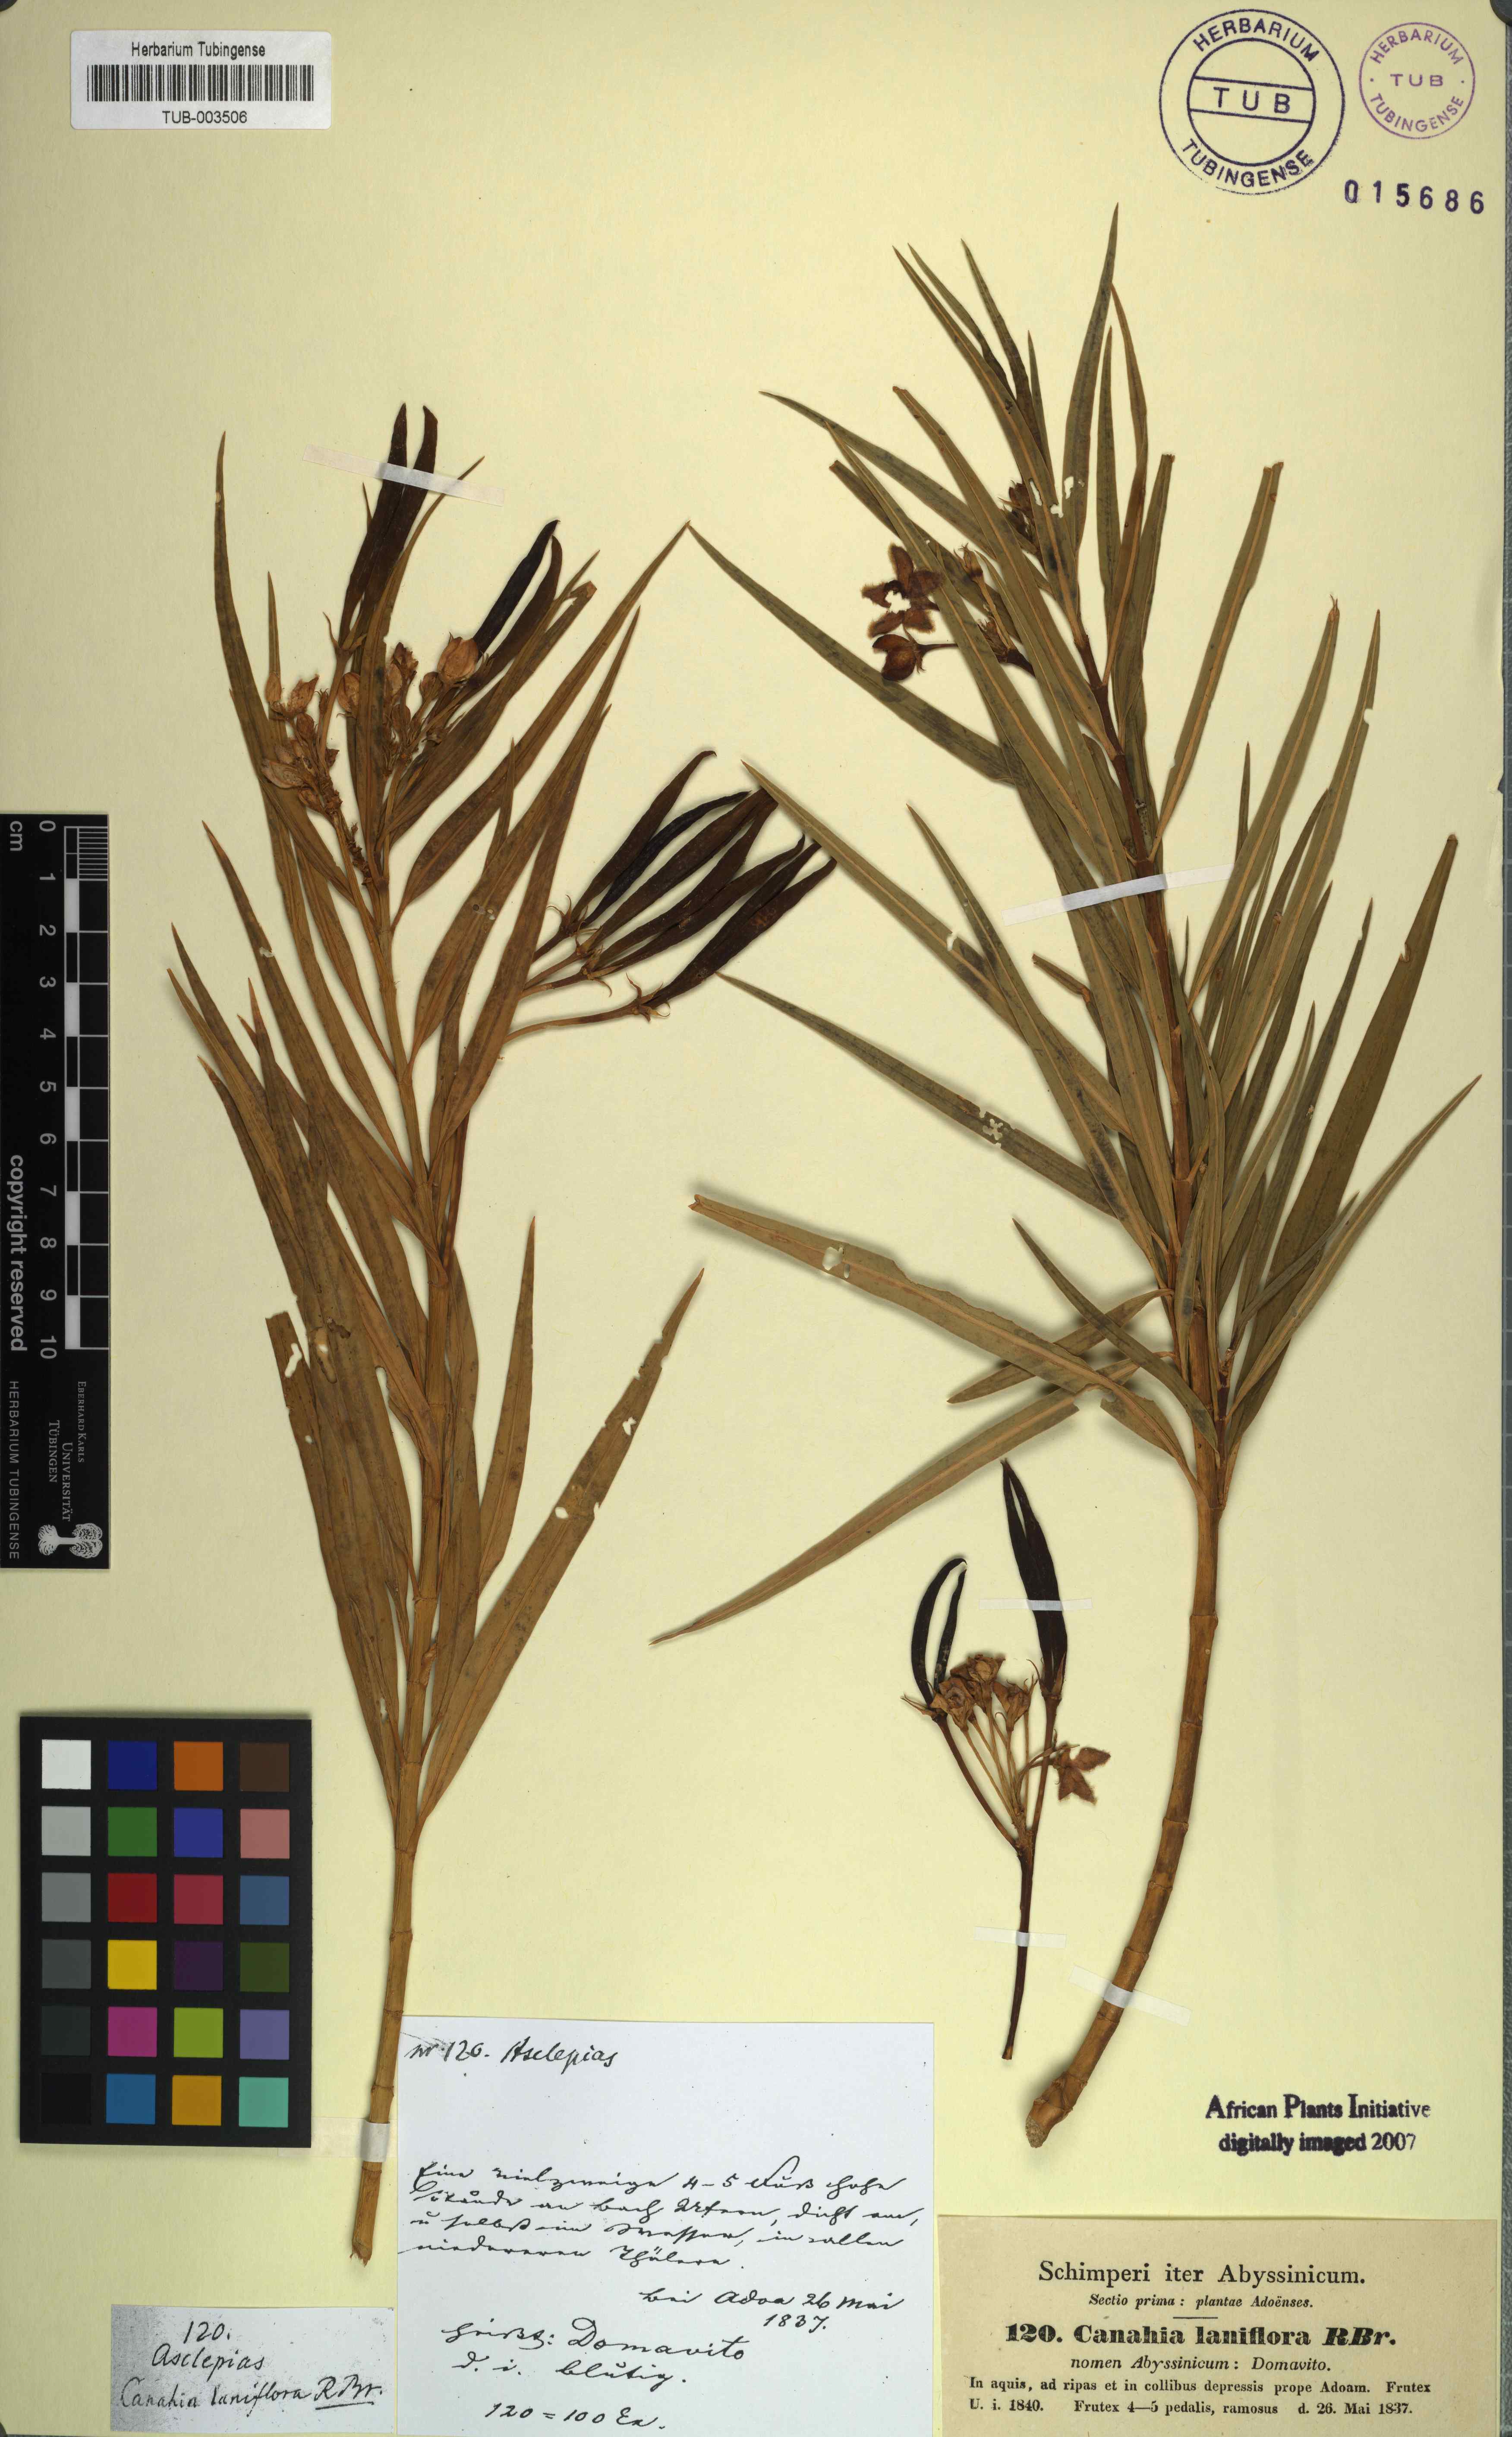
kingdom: Plantae
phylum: Tracheophyta
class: Magnoliopsida
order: Gentianales
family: Apocynaceae
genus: Kanahia
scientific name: Kanahia laniflora
